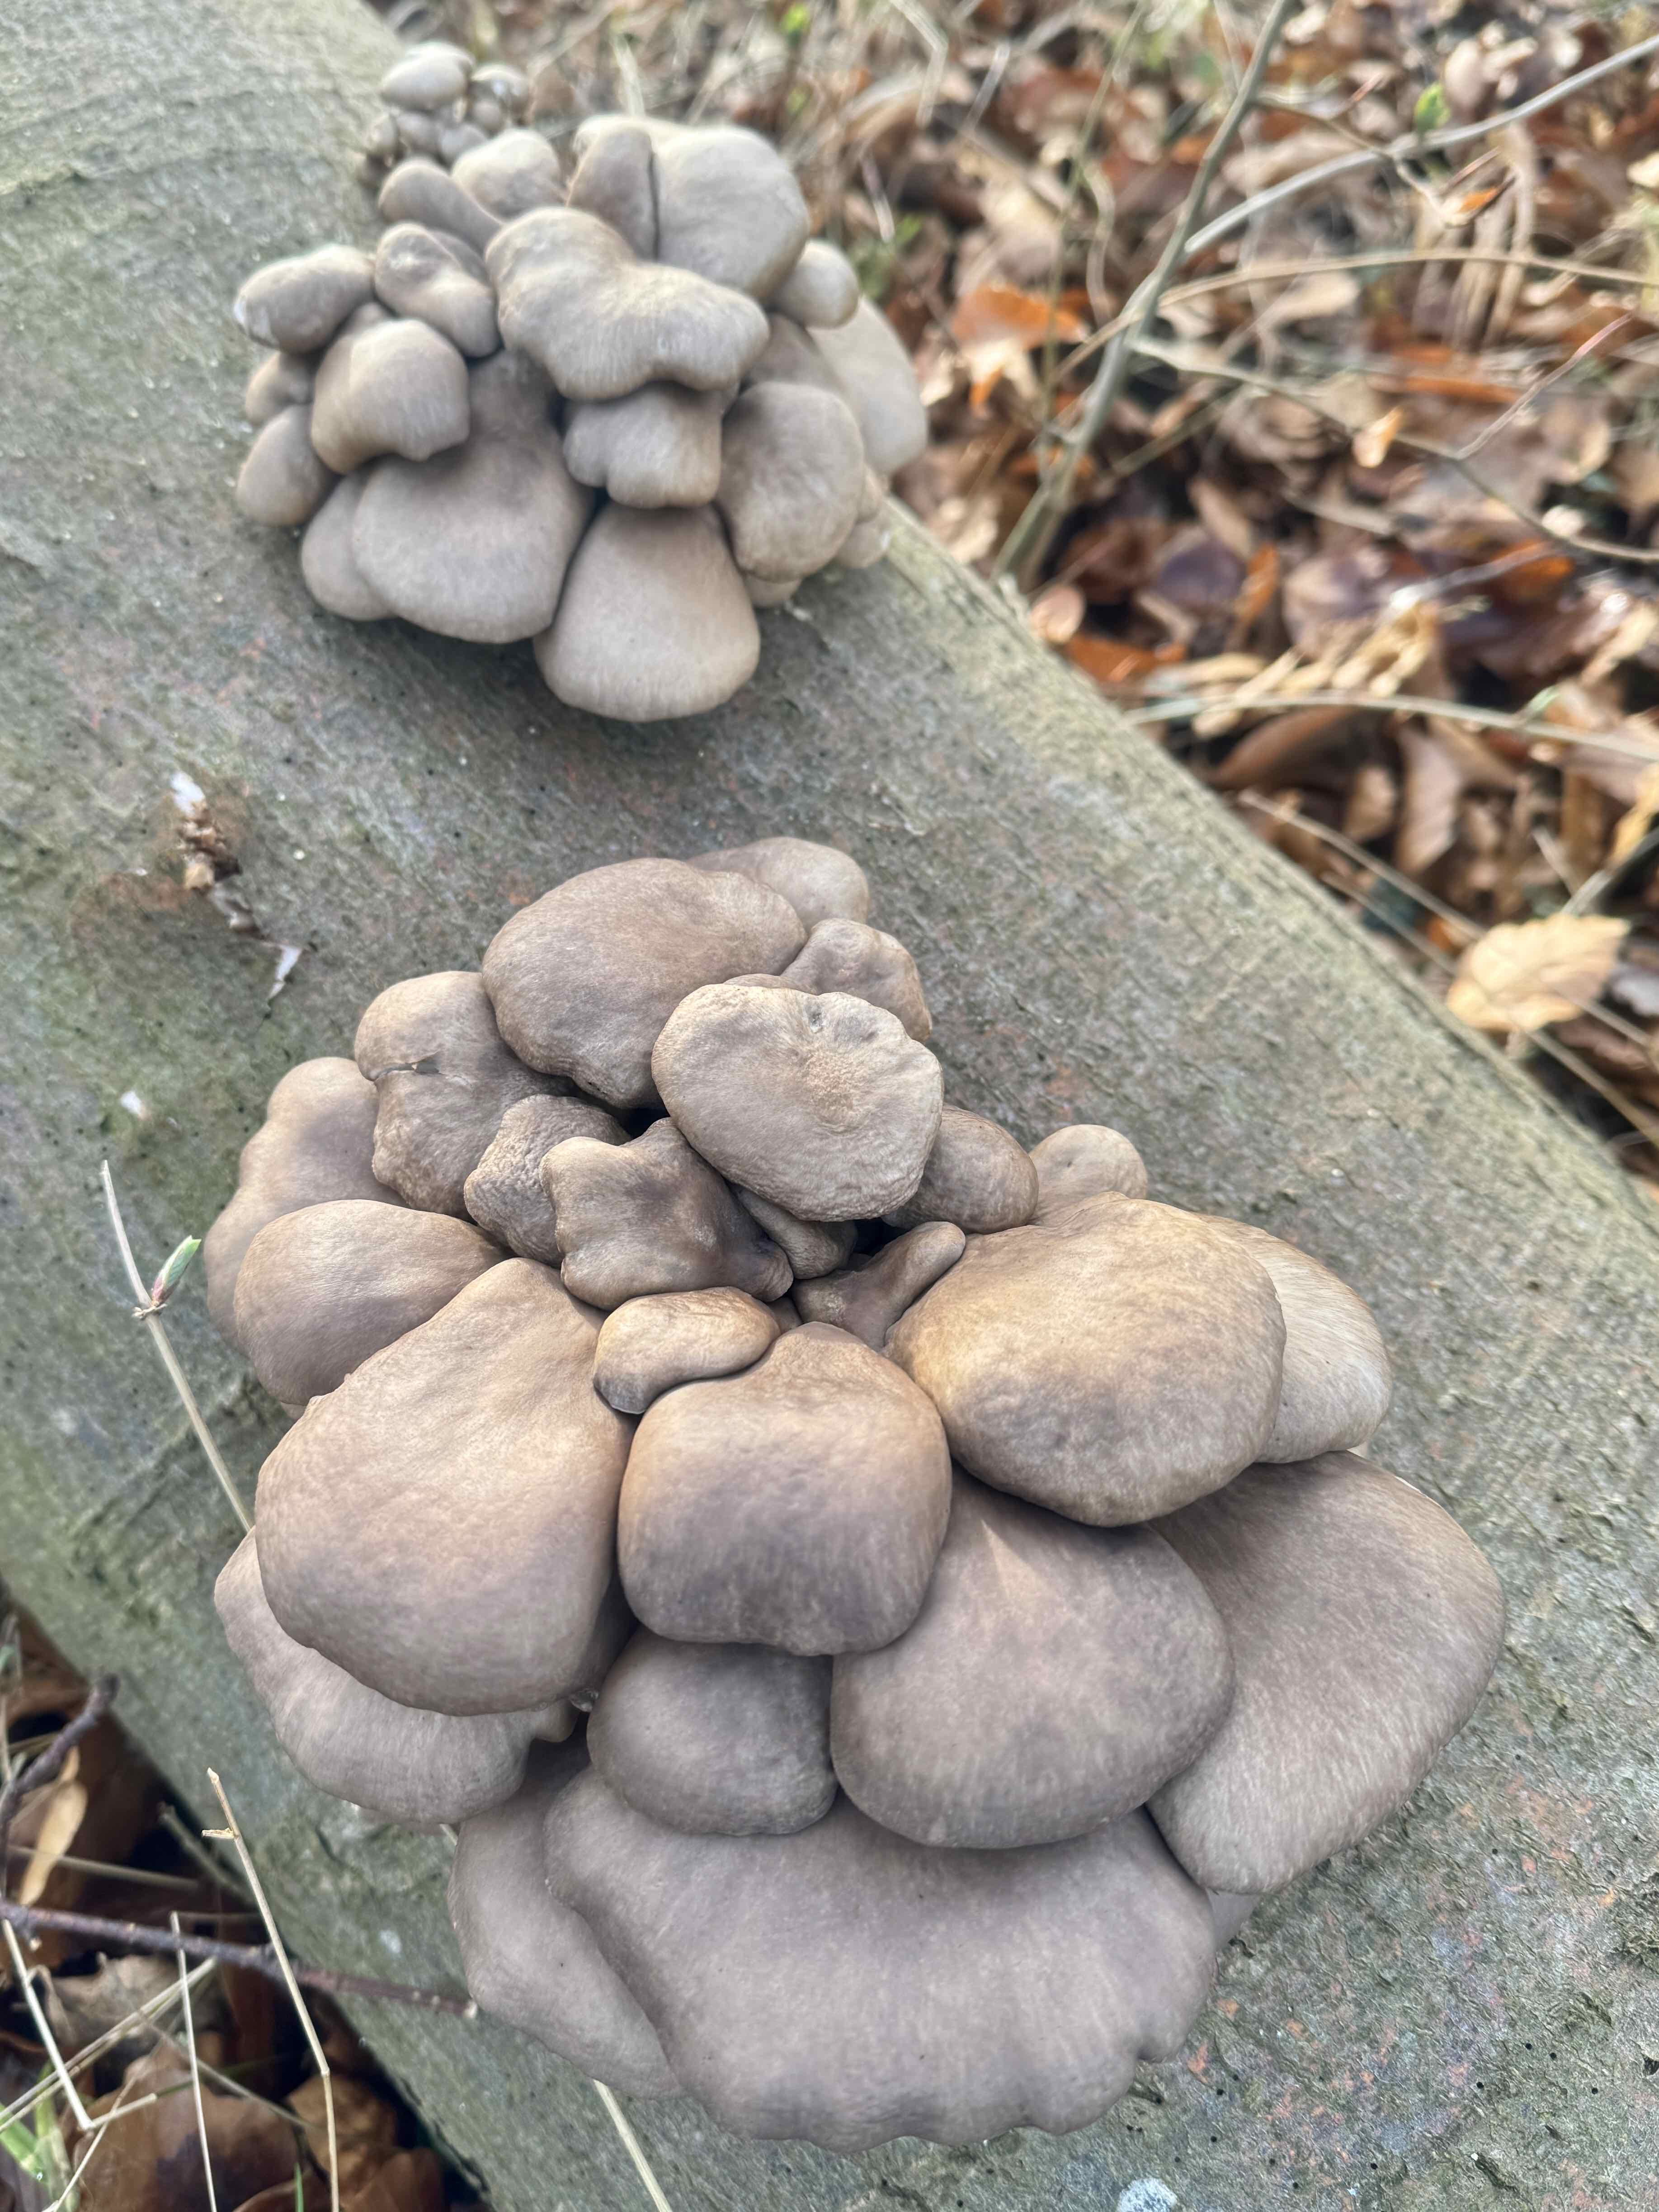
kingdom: Fungi
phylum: Basidiomycota
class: Agaricomycetes
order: Agaricales
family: Pleurotaceae
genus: Pleurotus
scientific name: Pleurotus ostreatus
